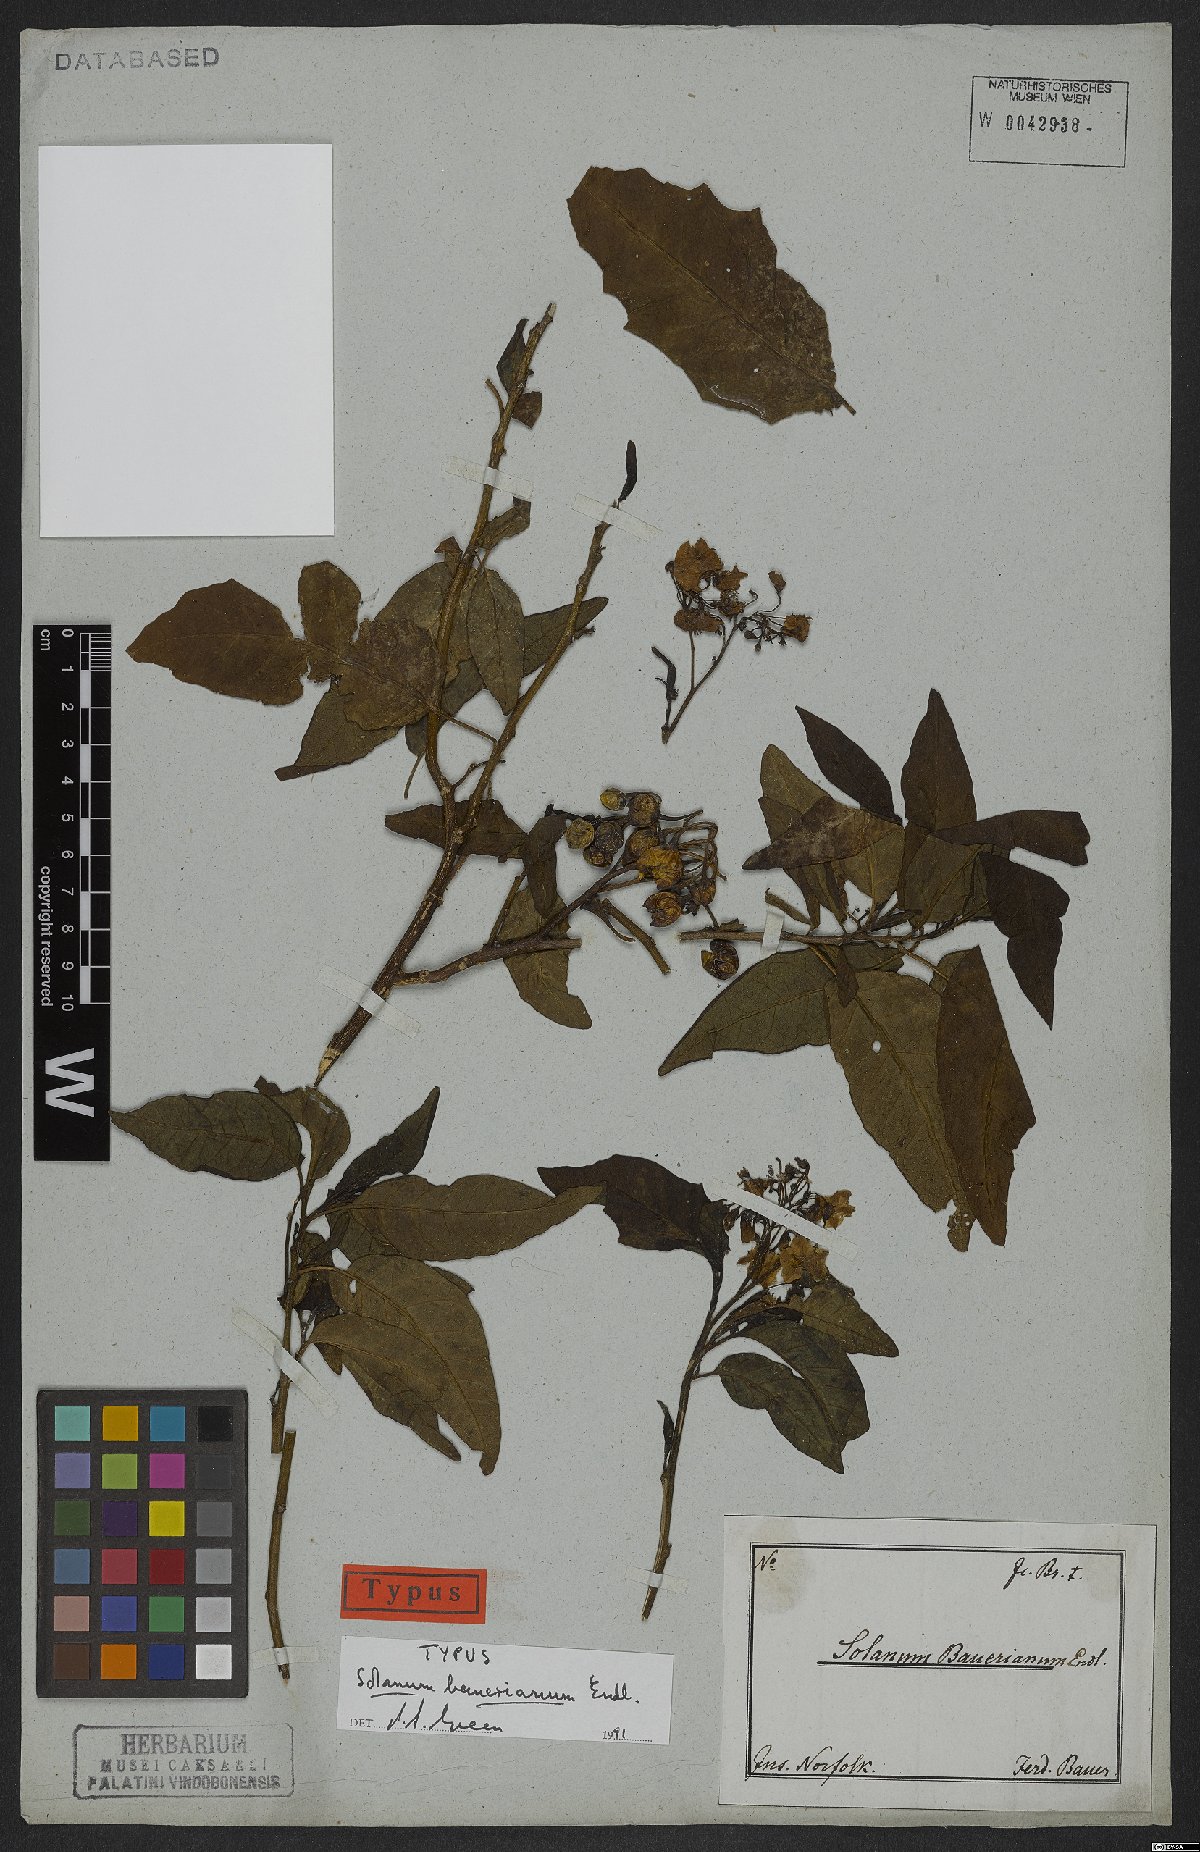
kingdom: Plantae
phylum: Tracheophyta
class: Magnoliopsida
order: Solanales
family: Solanaceae
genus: Solanum
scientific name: Solanum bauerianum
